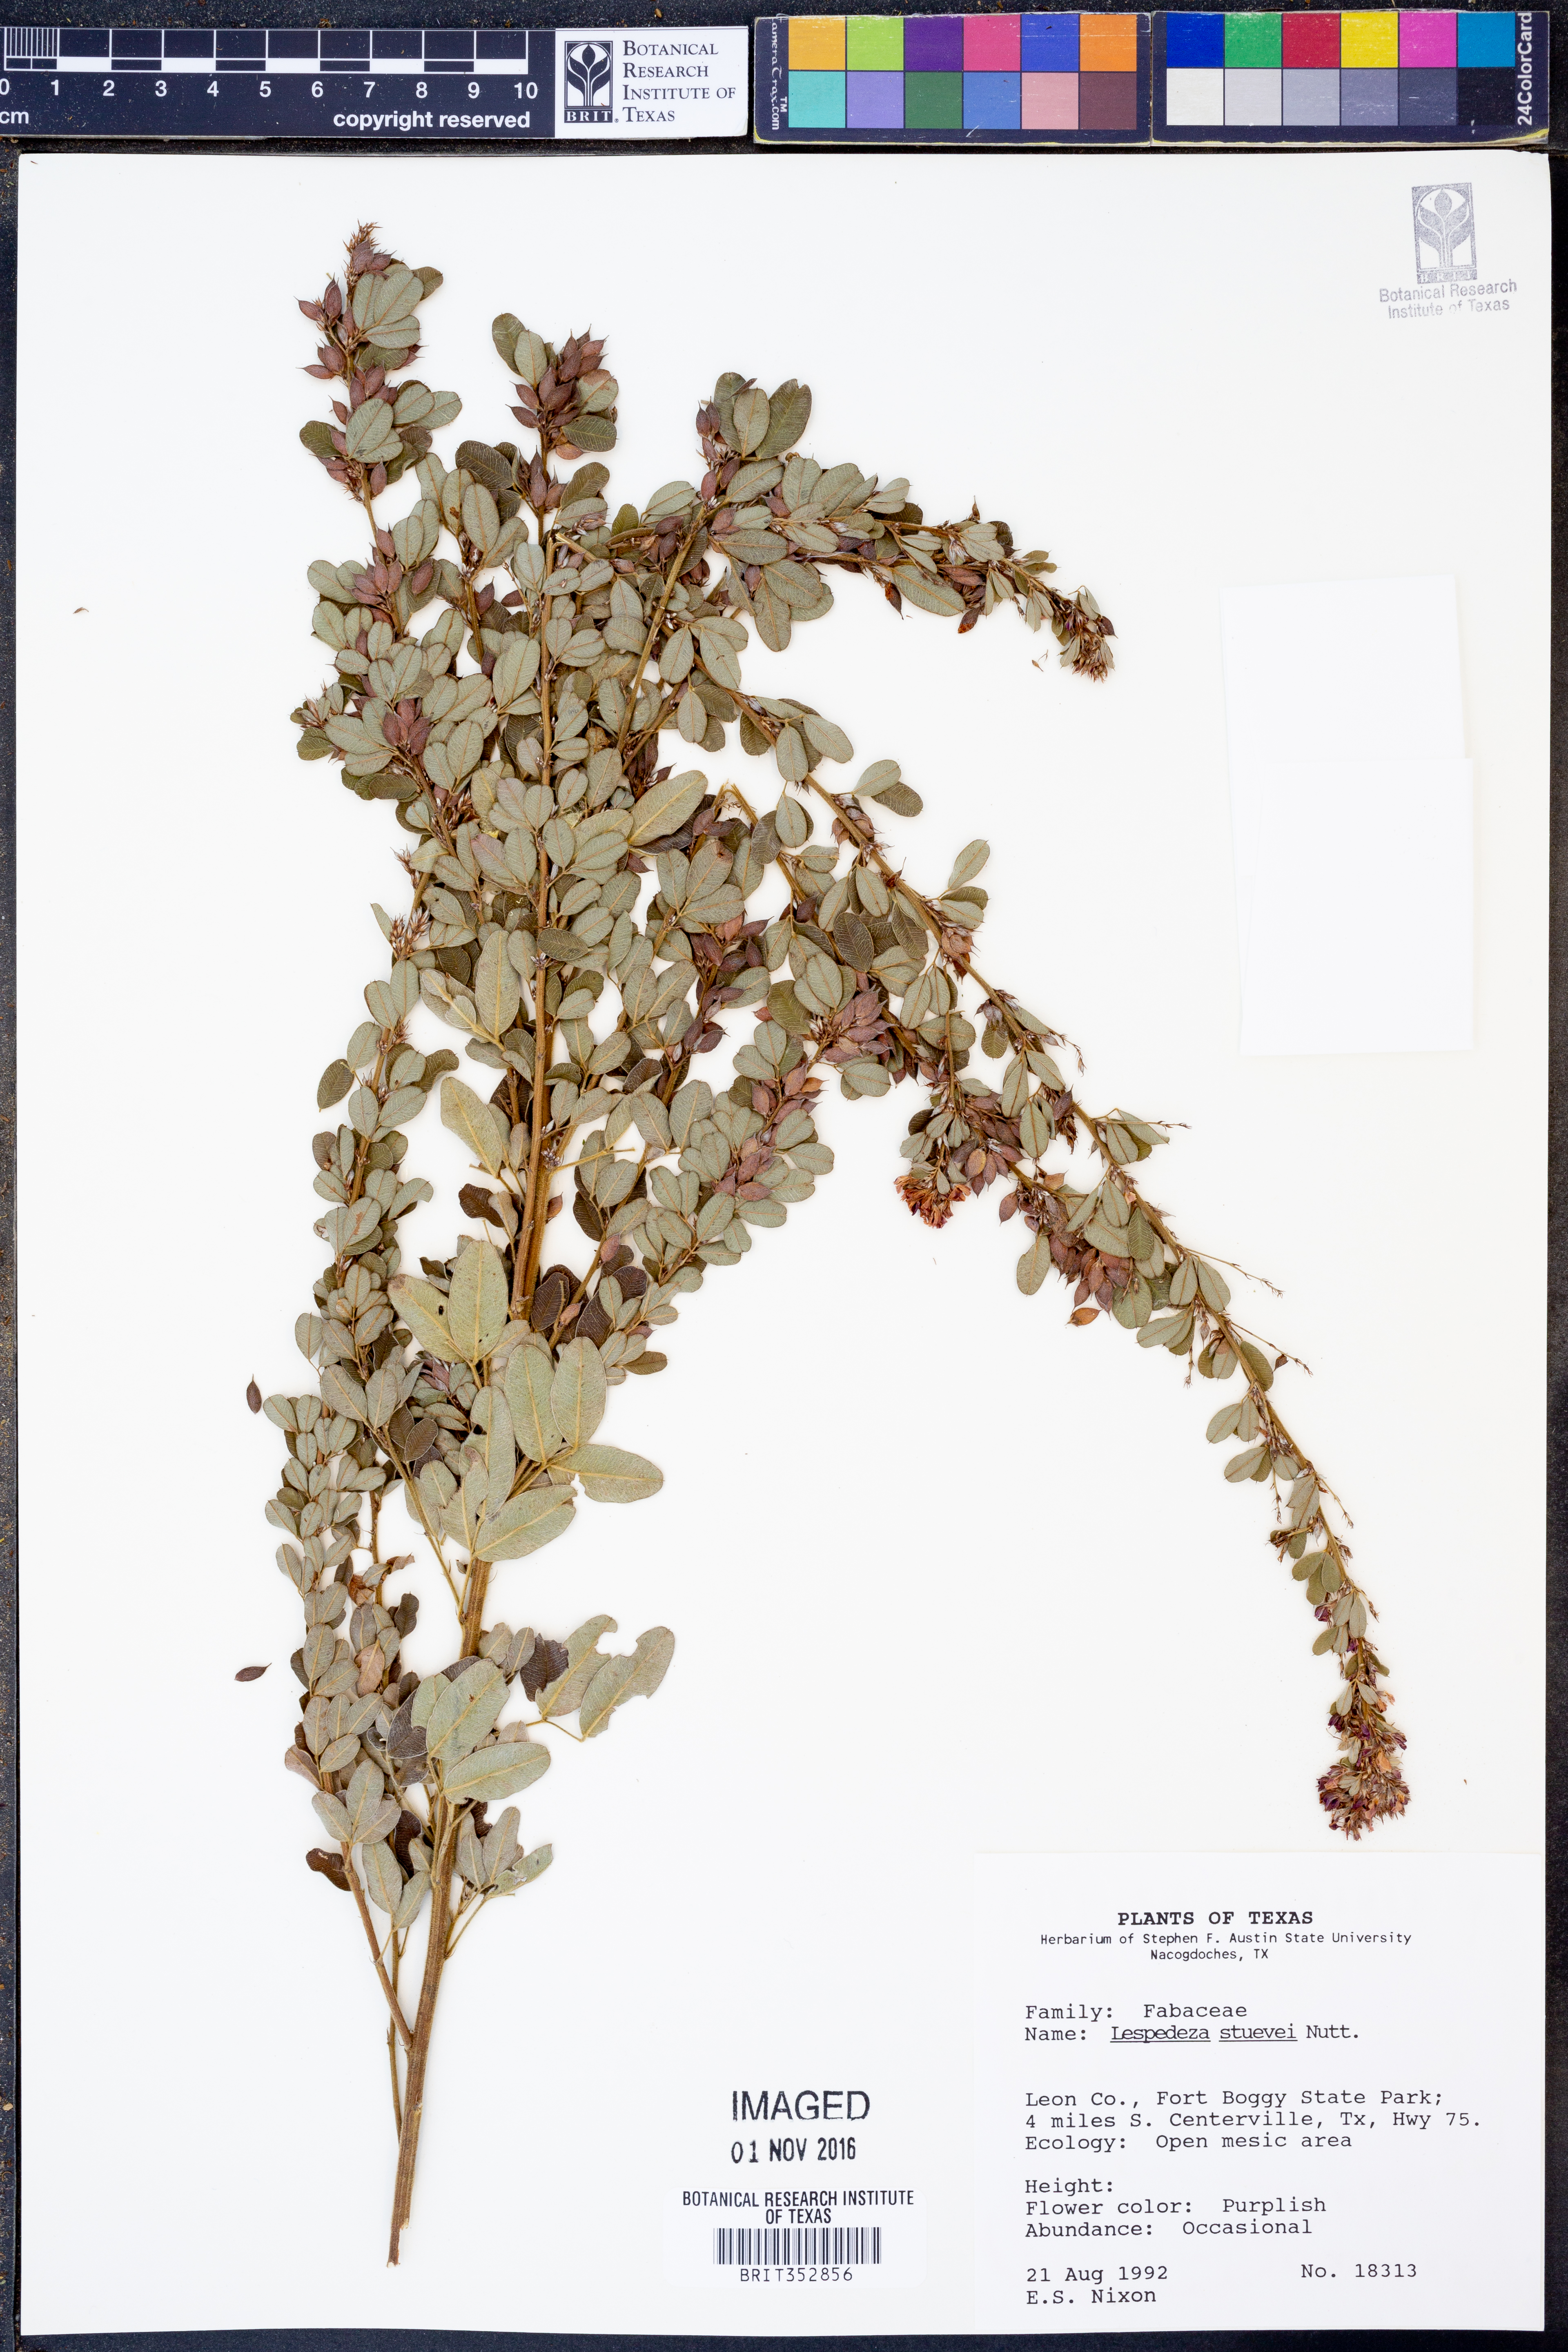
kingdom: Plantae
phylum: Tracheophyta
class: Magnoliopsida
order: Fabales
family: Fabaceae
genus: Lespedeza
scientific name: Lespedeza stuevei
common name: Tall bush-clover
